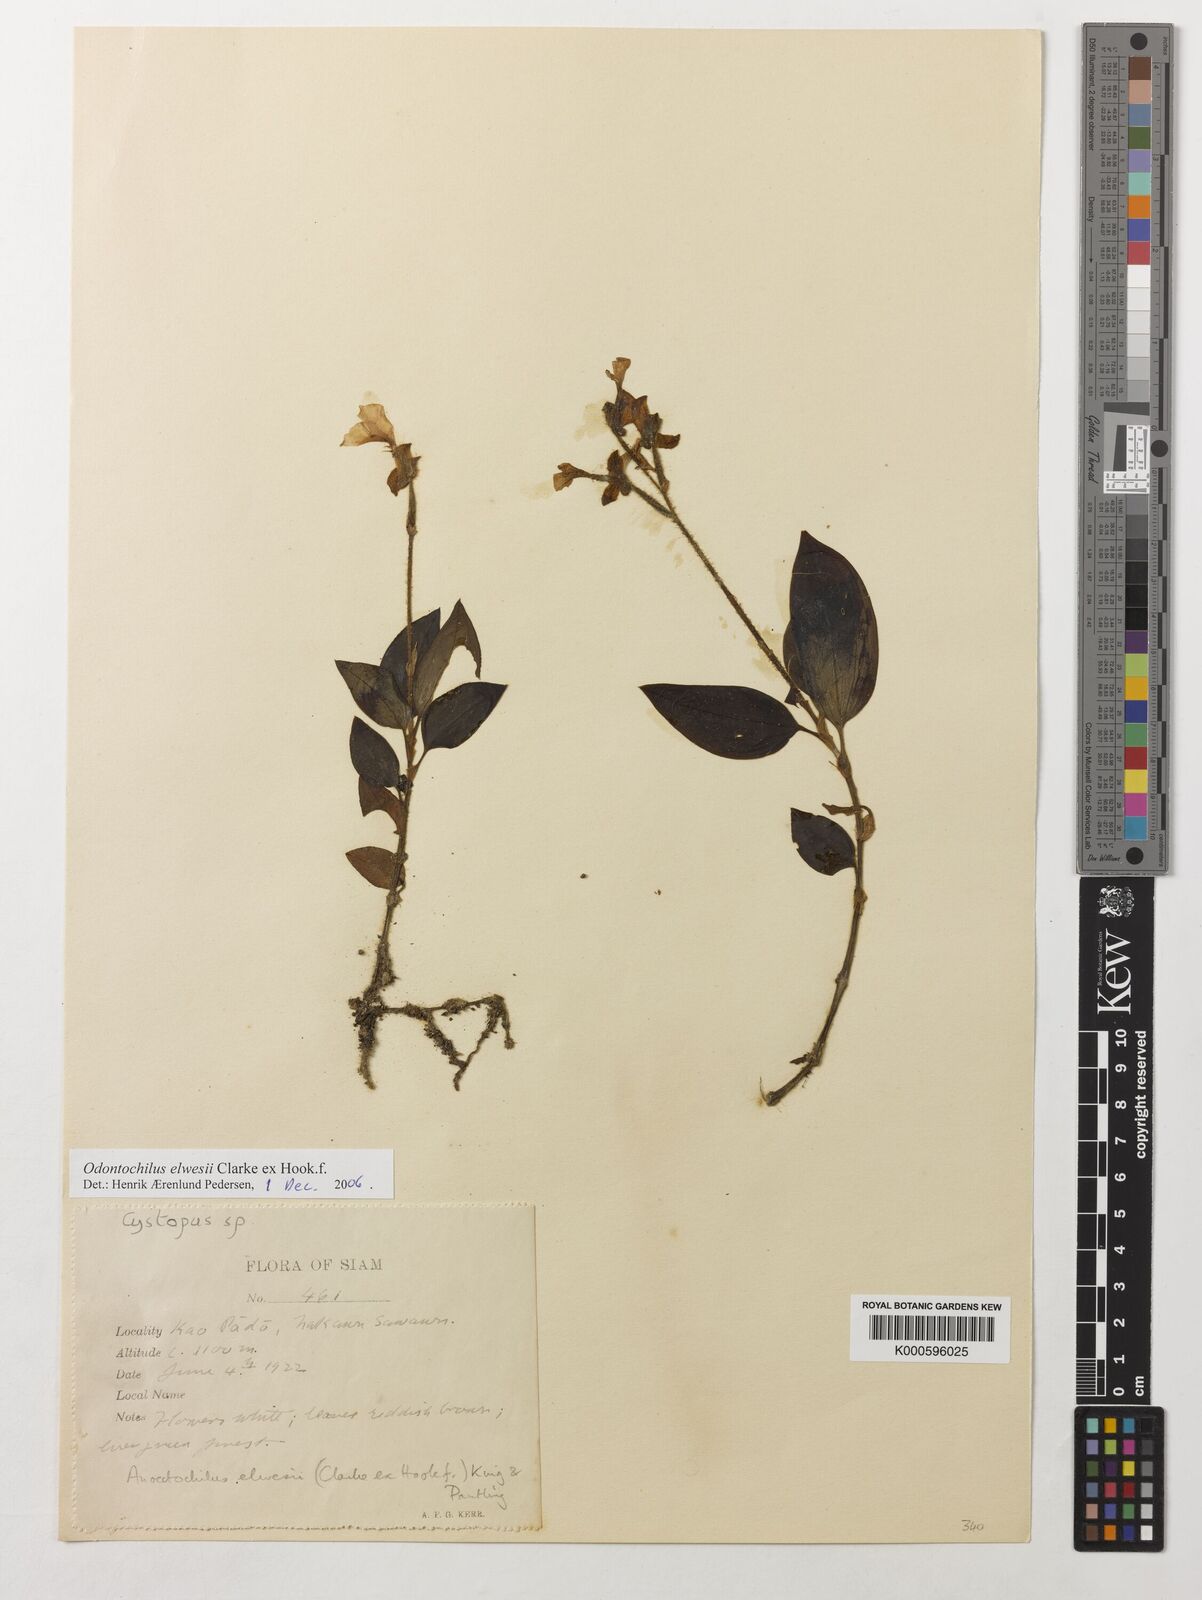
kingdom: Plantae
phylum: Tracheophyta
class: Liliopsida
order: Asparagales
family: Orchidaceae
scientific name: Orchidaceae
